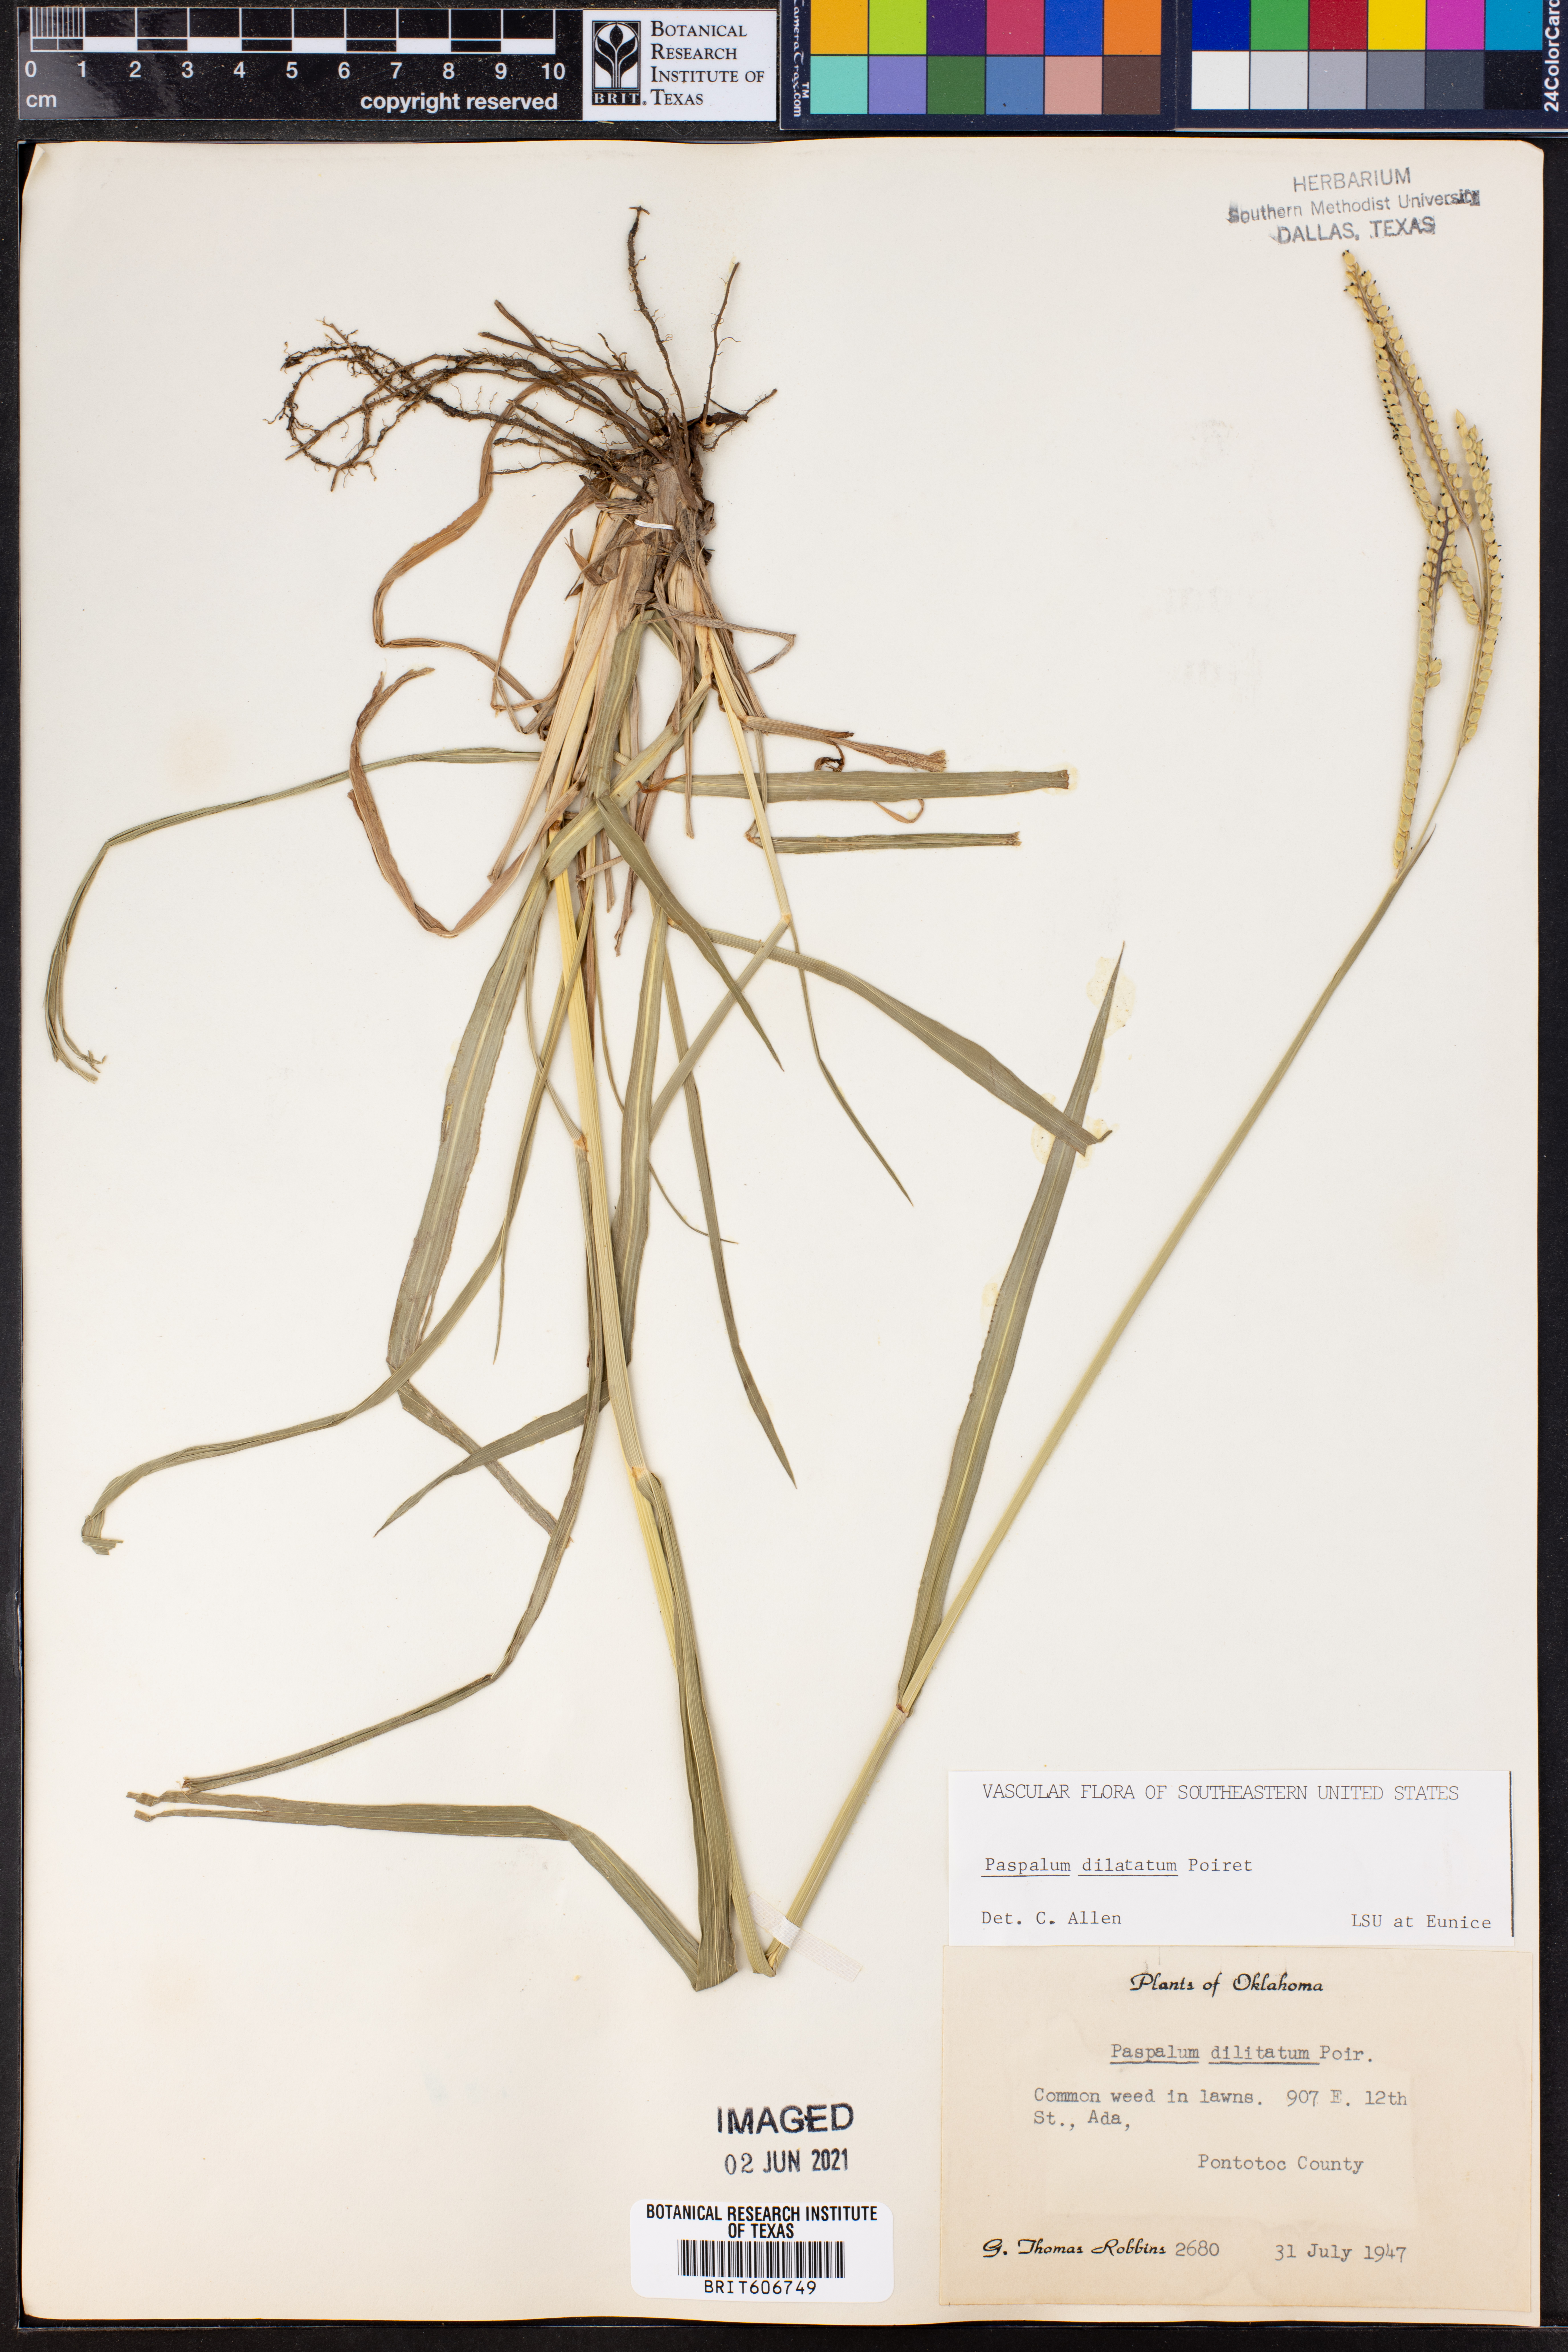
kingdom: Plantae
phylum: Tracheophyta
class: Liliopsida
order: Poales
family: Poaceae
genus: Paspalum
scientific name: Paspalum dilatatum
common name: Dallisgrass
